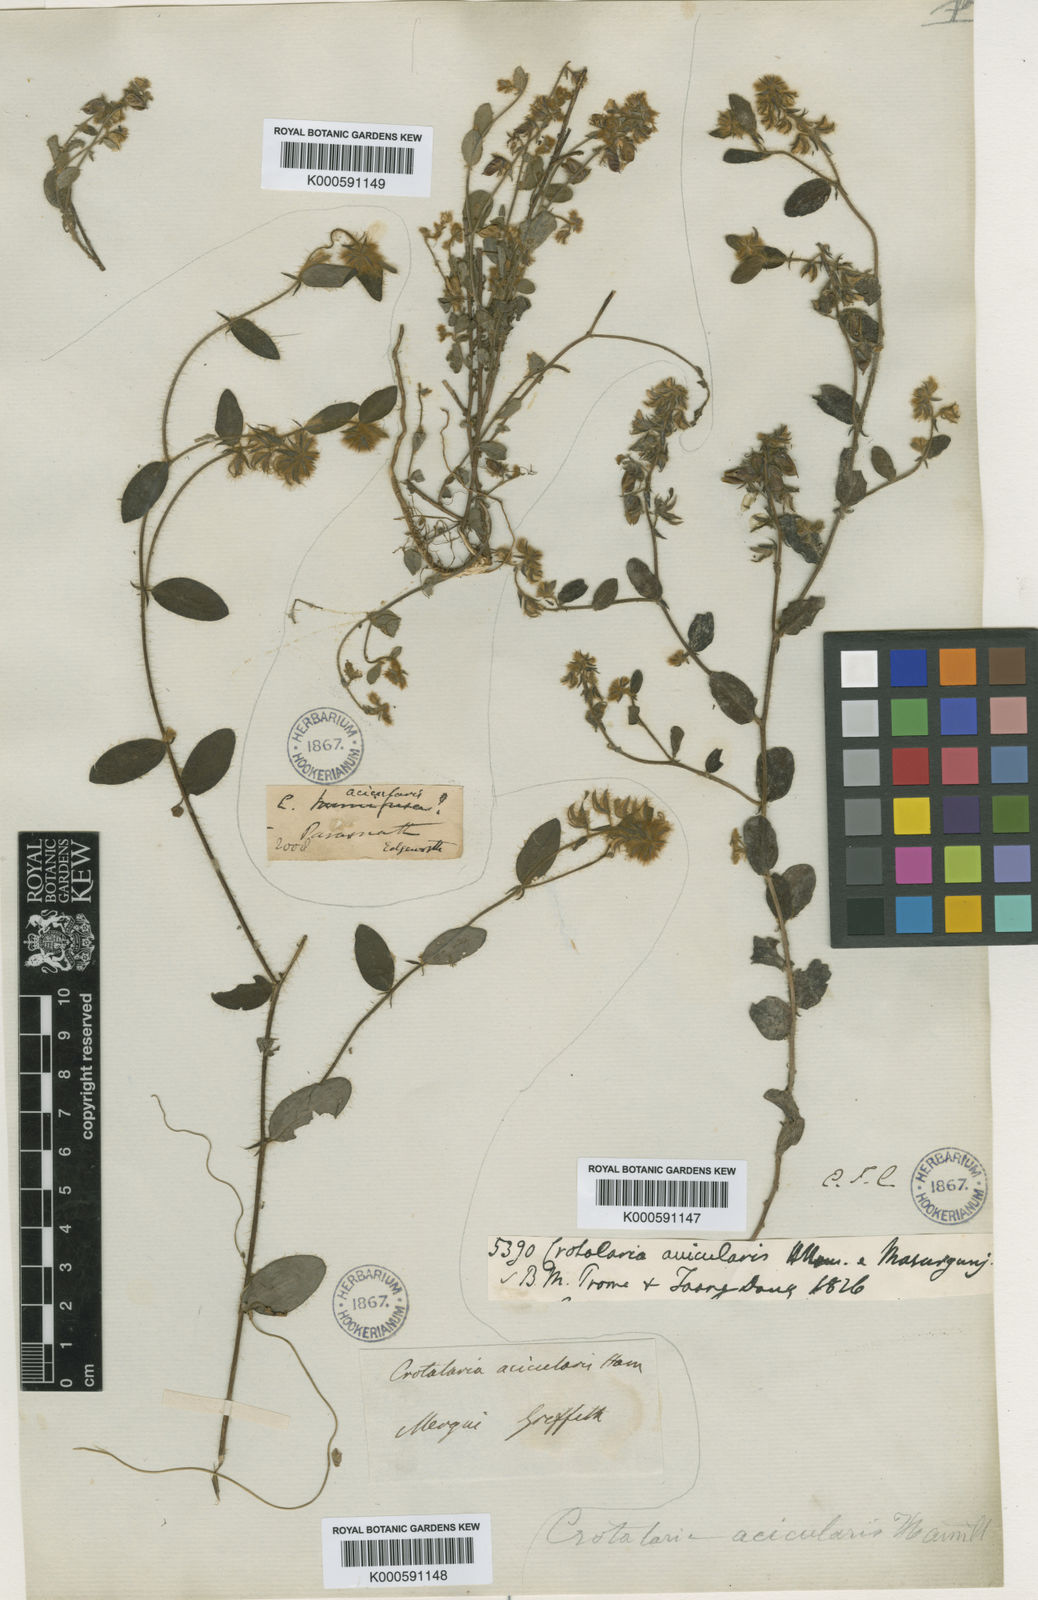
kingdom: Plantae
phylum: Tracheophyta
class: Magnoliopsida
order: Fabales
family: Fabaceae
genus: Crotalaria
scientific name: Crotalaria acicularis
